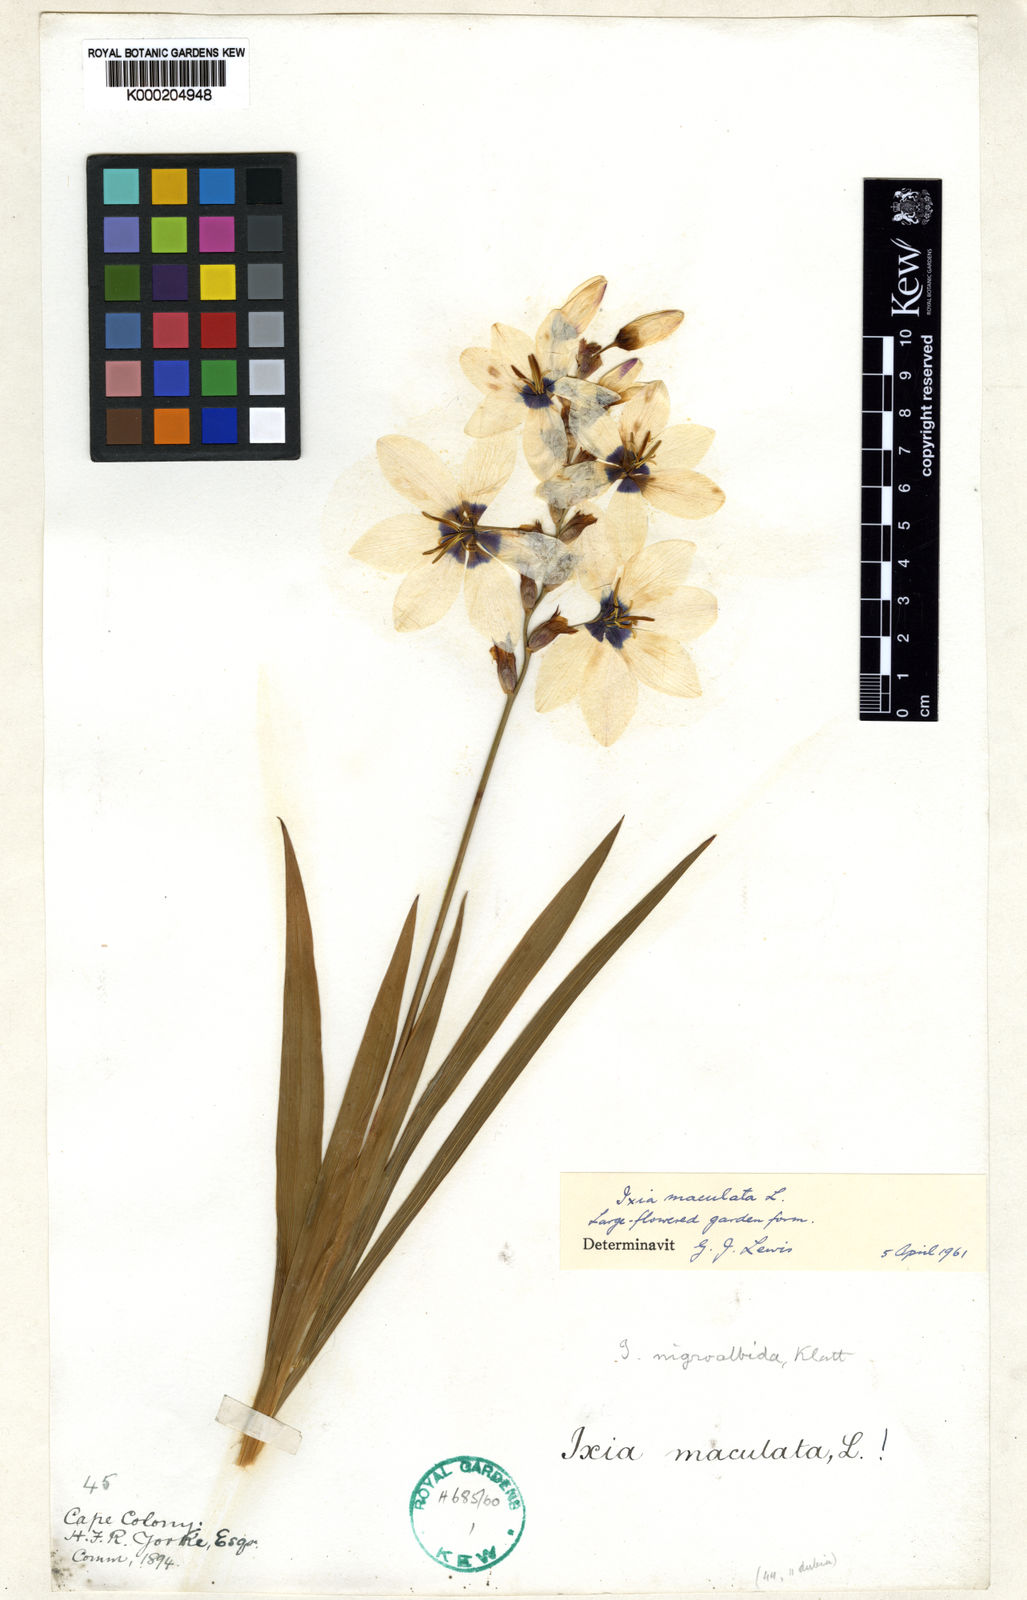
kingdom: Plantae
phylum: Tracheophyta
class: Liliopsida
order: Asparagales
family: Iridaceae
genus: Ixia
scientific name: Ixia maculata
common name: Spotted african cornlily
